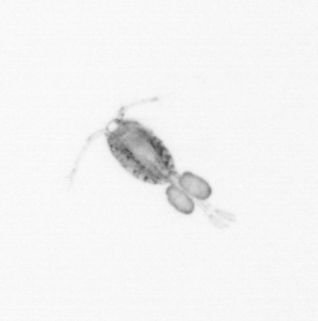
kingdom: Animalia
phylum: Arthropoda
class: Copepoda
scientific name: Copepoda
